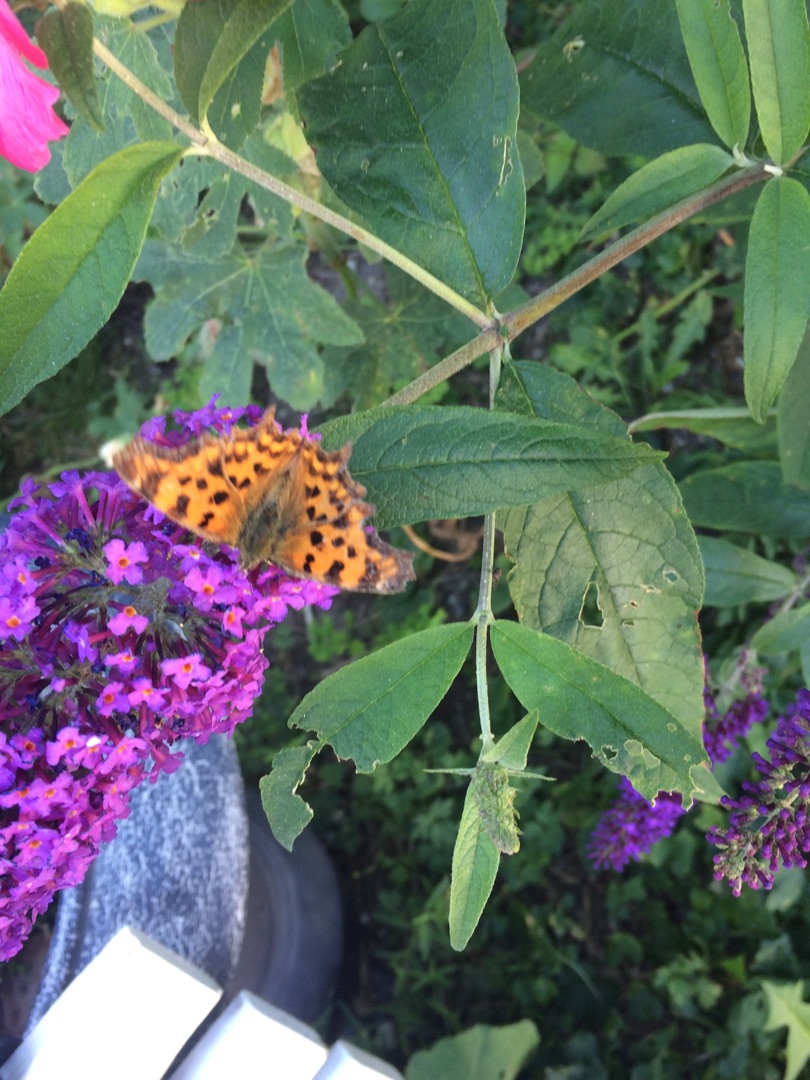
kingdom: Animalia
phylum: Arthropoda
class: Insecta
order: Lepidoptera
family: Nymphalidae
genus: Polygonia
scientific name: Polygonia c-album
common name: Det hvide C
